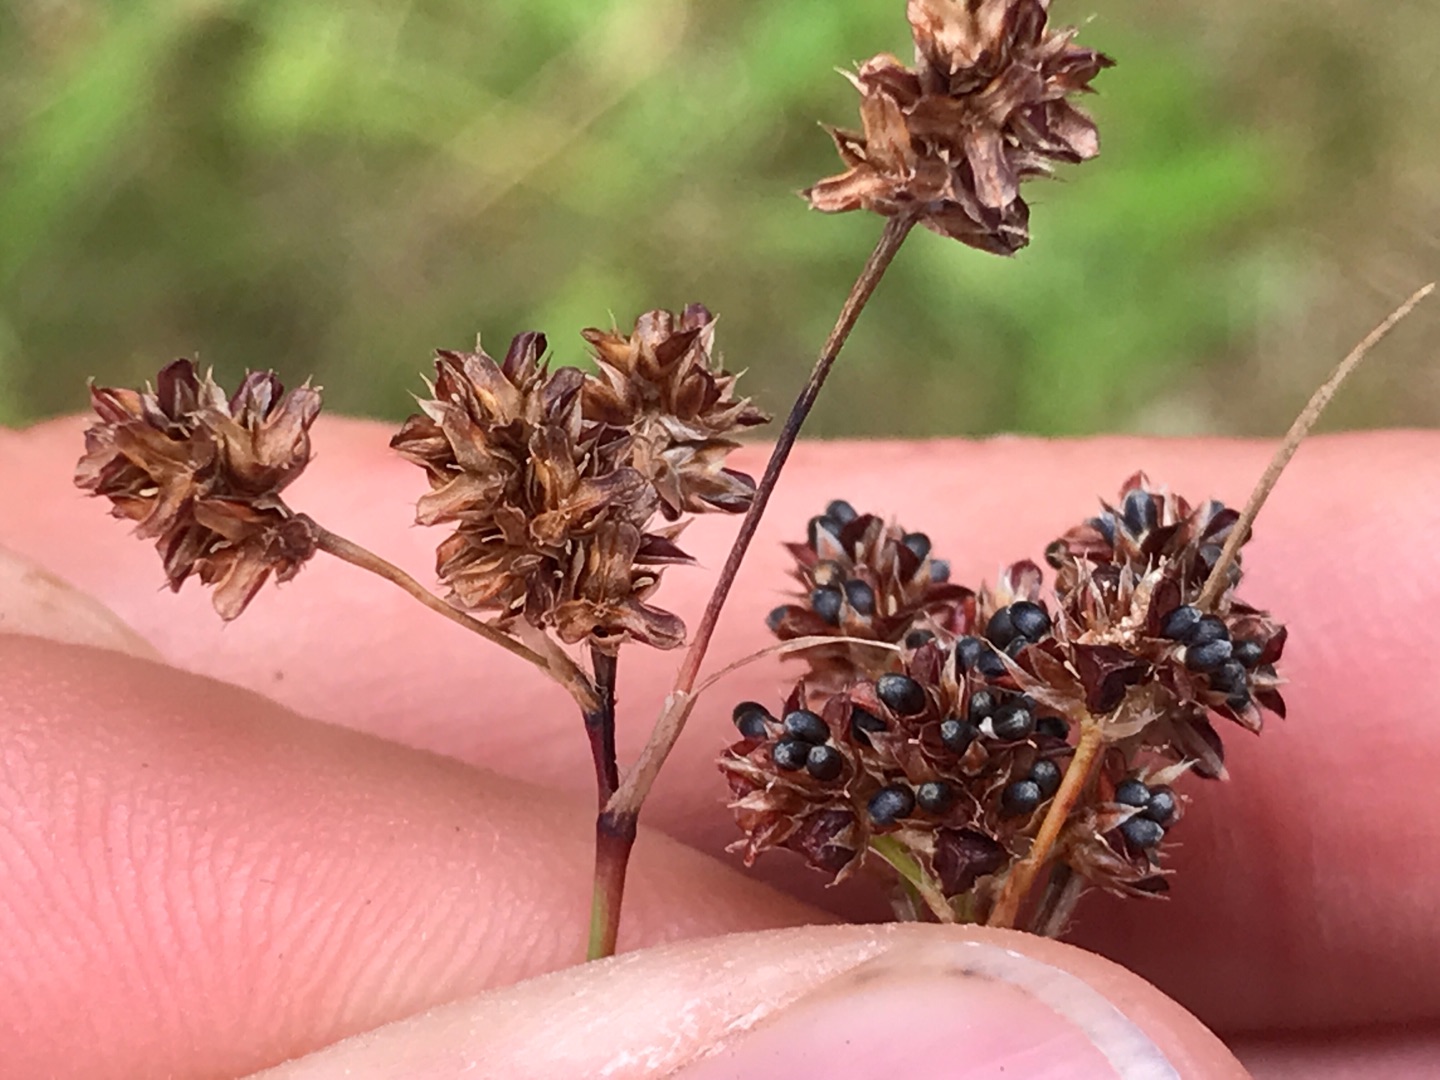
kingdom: Plantae
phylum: Tracheophyta
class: Liliopsida
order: Poales
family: Juncaceae
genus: Luzula
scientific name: Luzula multiflora
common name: Mangeblomstret frytle
